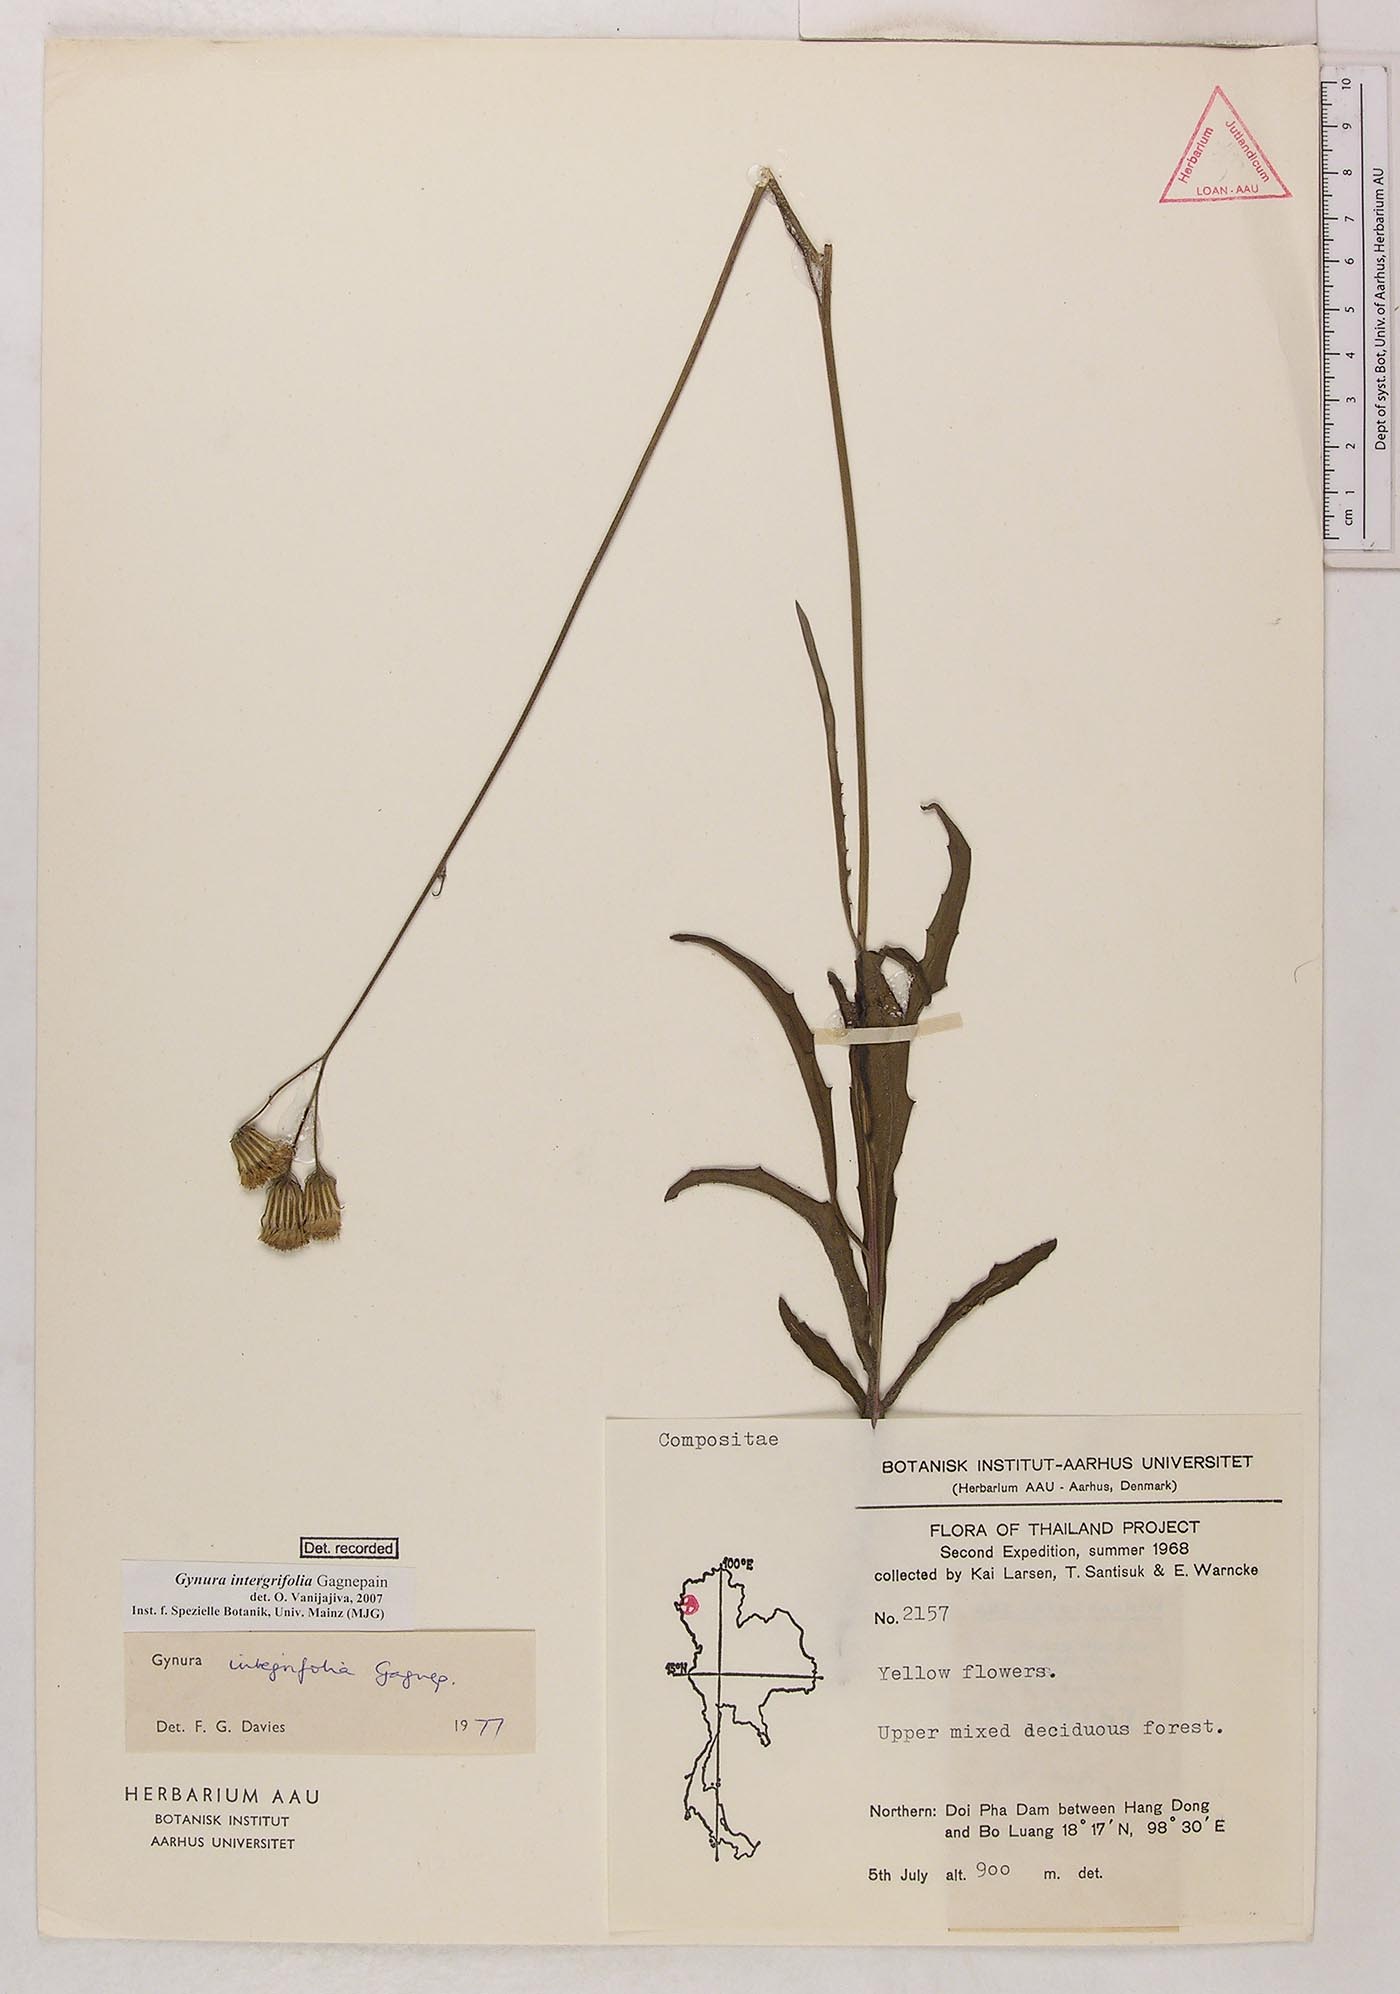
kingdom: Plantae
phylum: Tracheophyta
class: Magnoliopsida
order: Asterales
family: Asteraceae
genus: Gynura
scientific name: Gynura integrifolia
